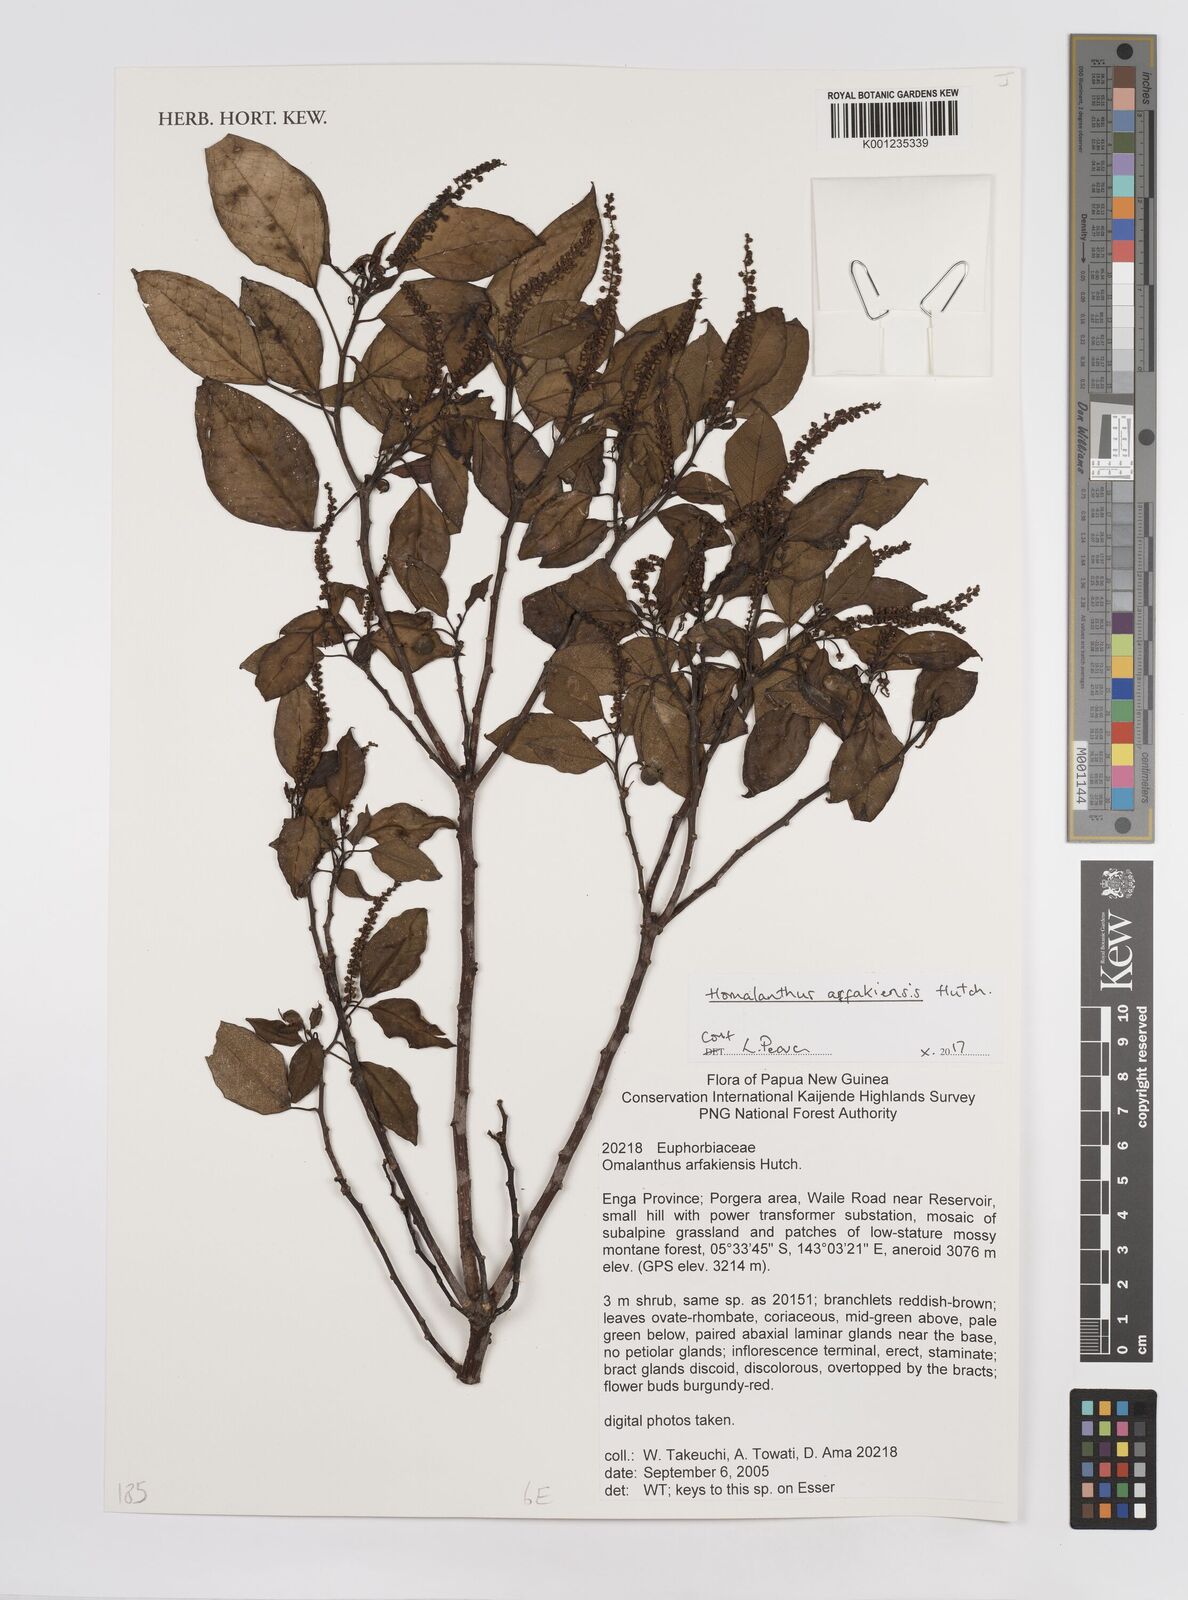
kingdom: Plantae
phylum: Tracheophyta
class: Magnoliopsida
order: Malpighiales
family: Euphorbiaceae
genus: Homalanthus
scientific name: Homalanthus arfakiensis
